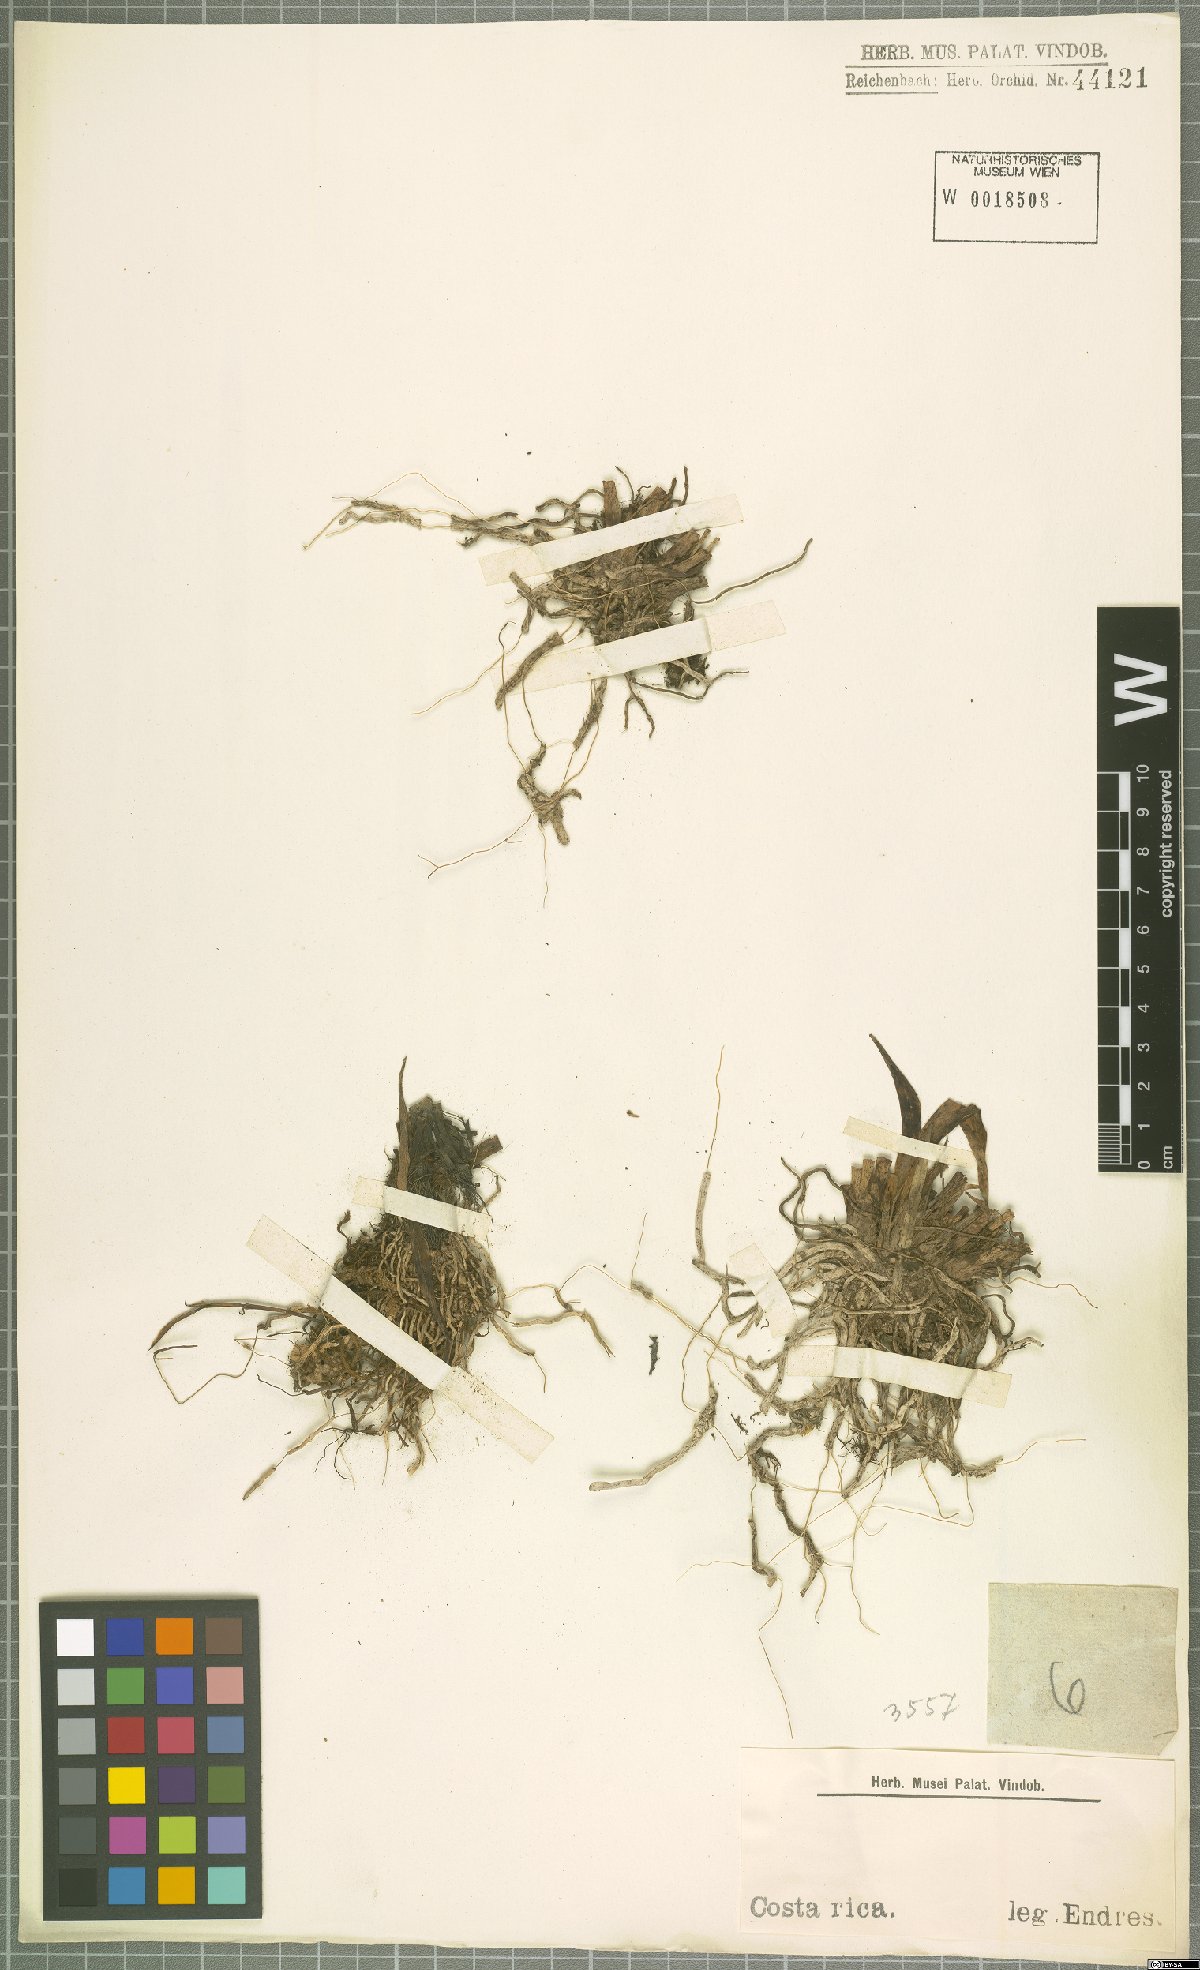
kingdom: Plantae
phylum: Tracheophyta
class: Liliopsida
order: Asparagales
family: Orchidaceae
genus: Maxillaria
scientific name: Maxillaria
